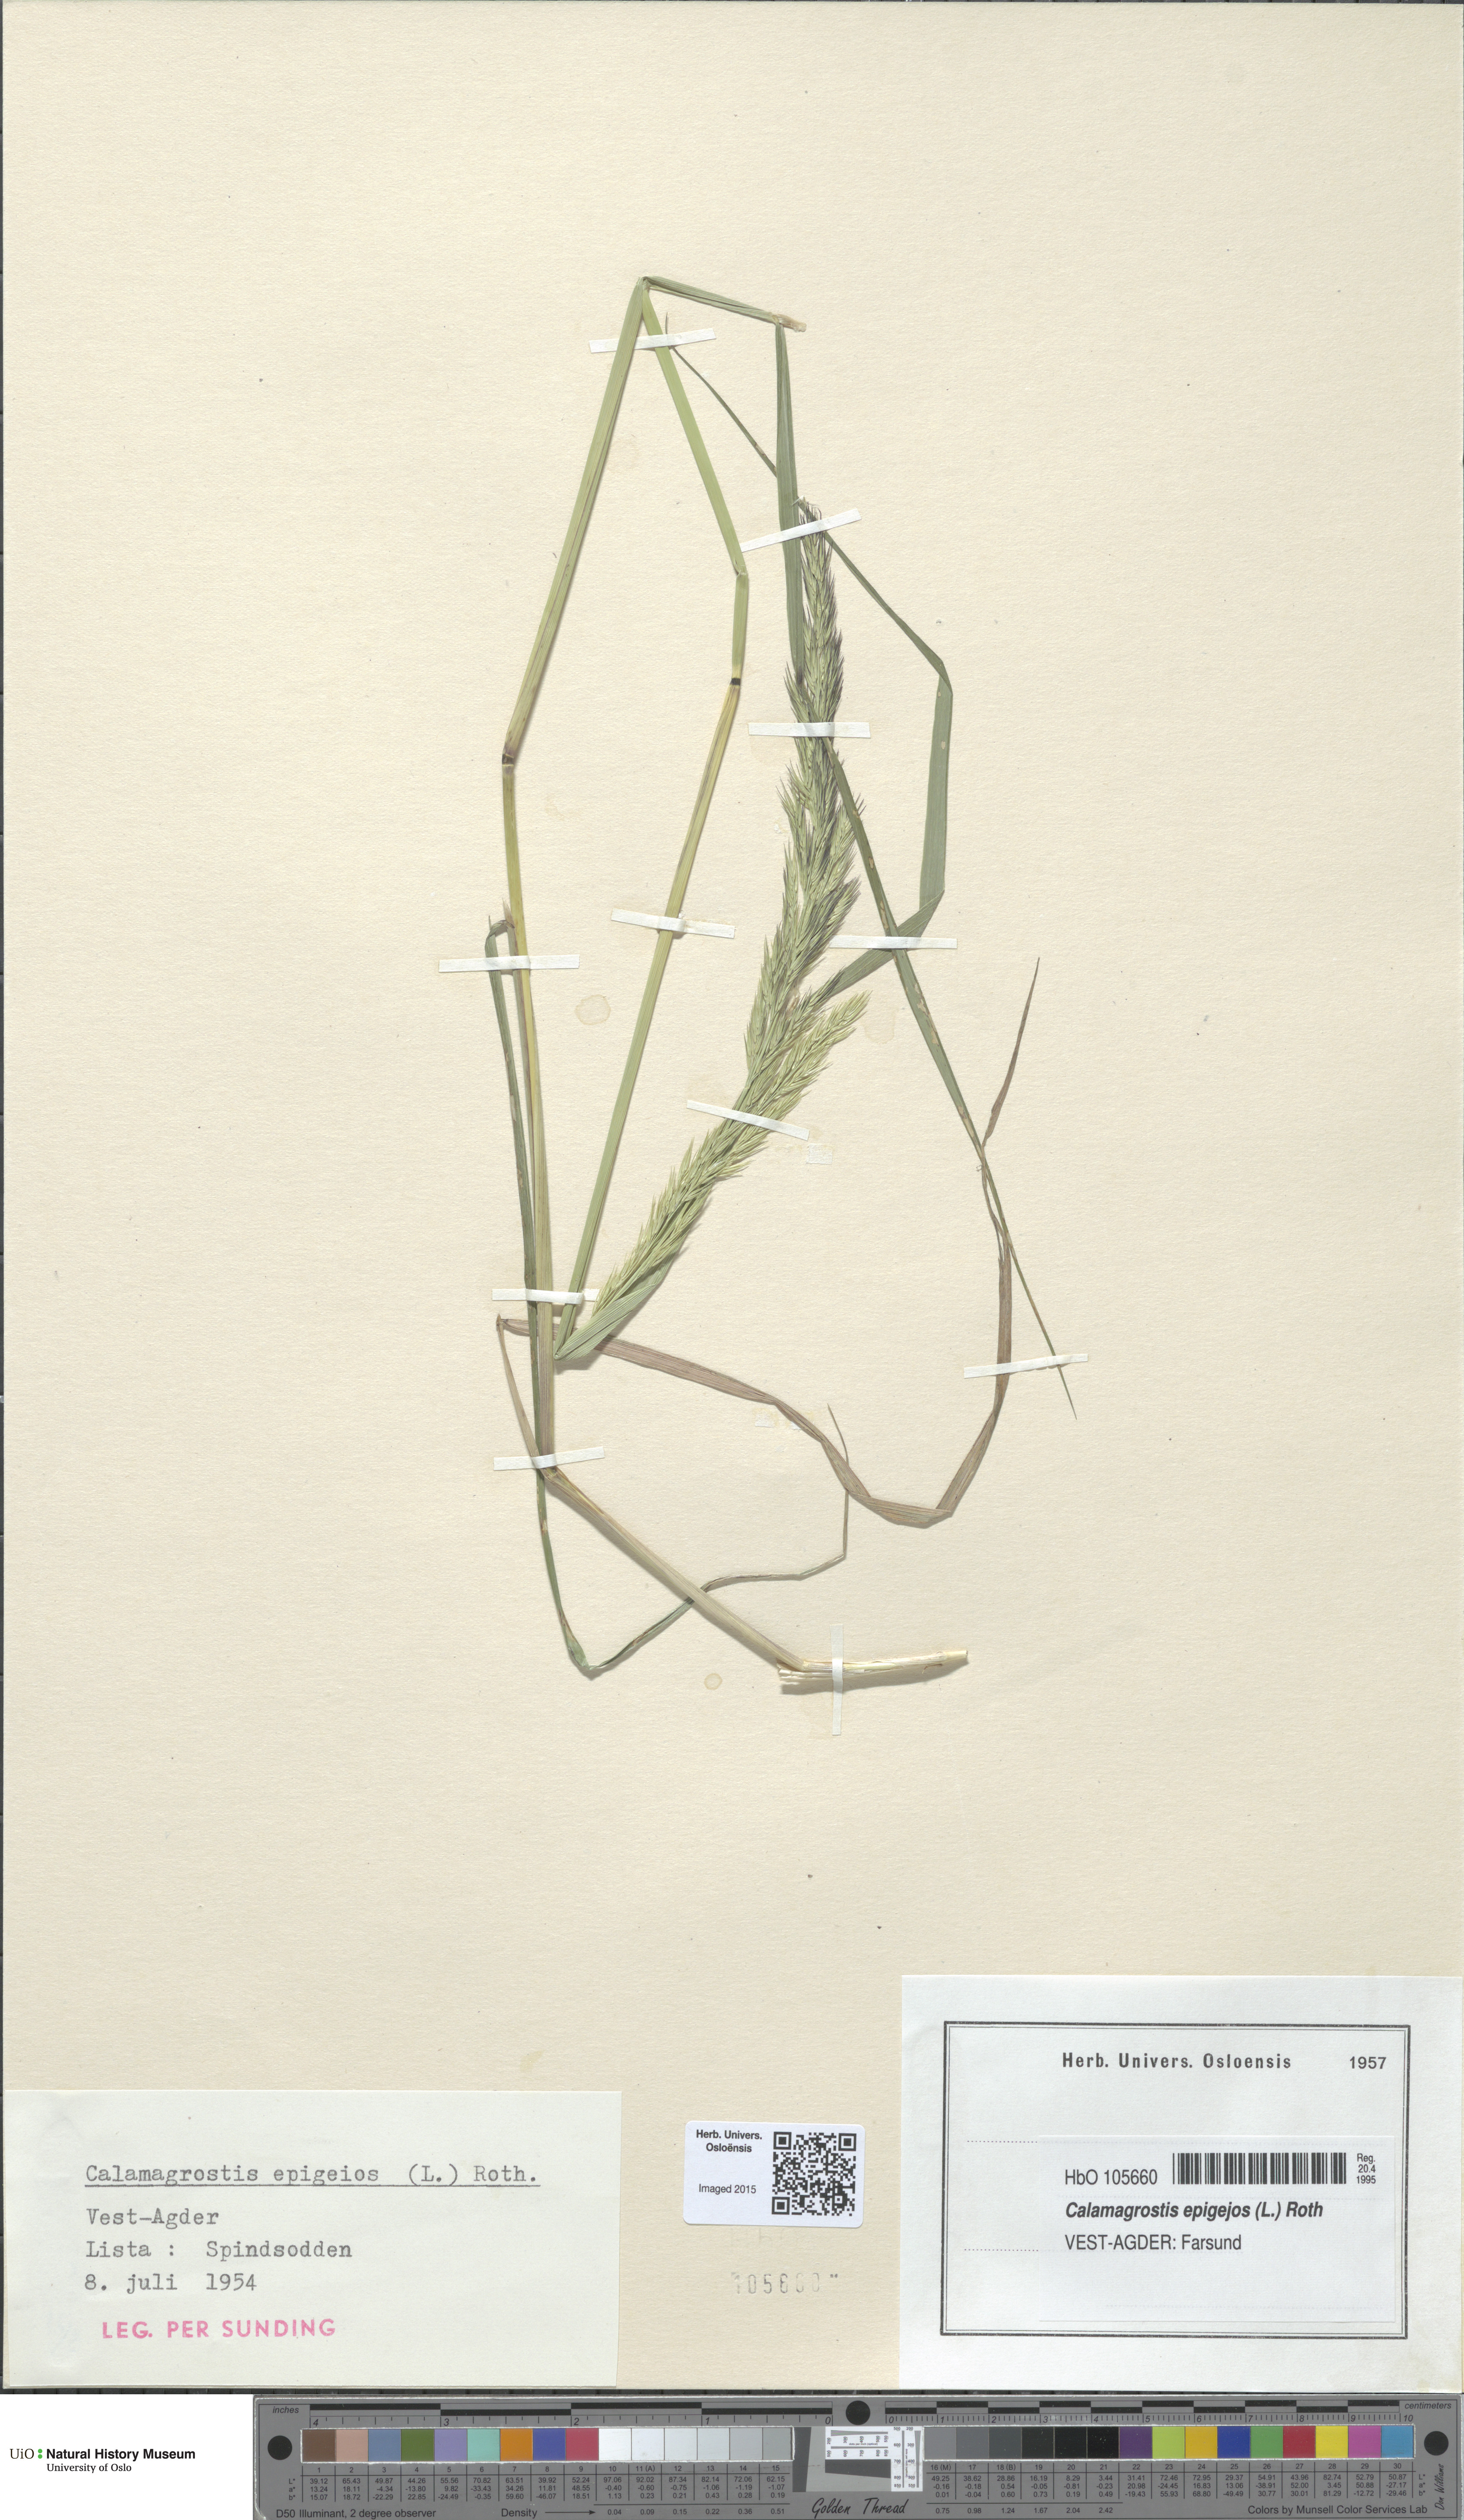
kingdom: Plantae
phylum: Tracheophyta
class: Liliopsida
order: Poales
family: Poaceae
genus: Calamagrostis
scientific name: Calamagrostis epigejos
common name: Wood small-reed
